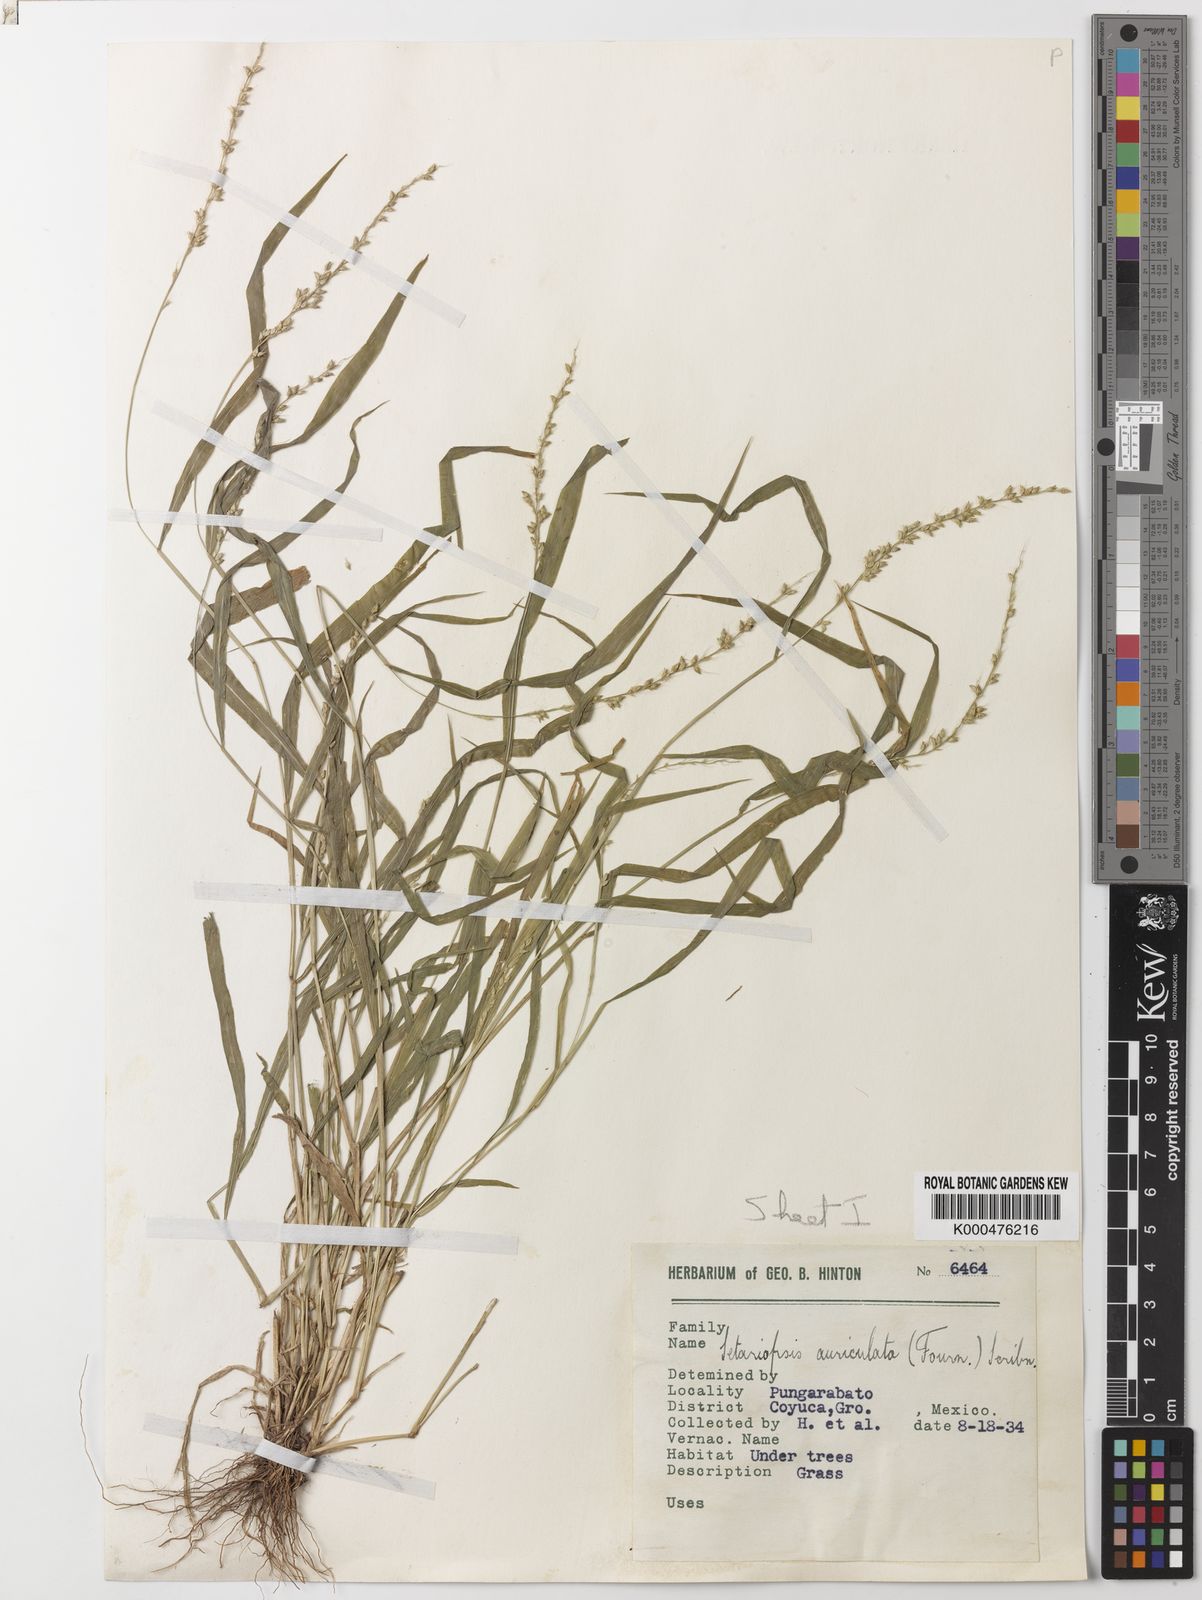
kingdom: Plantae
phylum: Tracheophyta
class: Liliopsida
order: Poales
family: Poaceae
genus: Setariopsis
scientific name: Setariopsis auriculata
